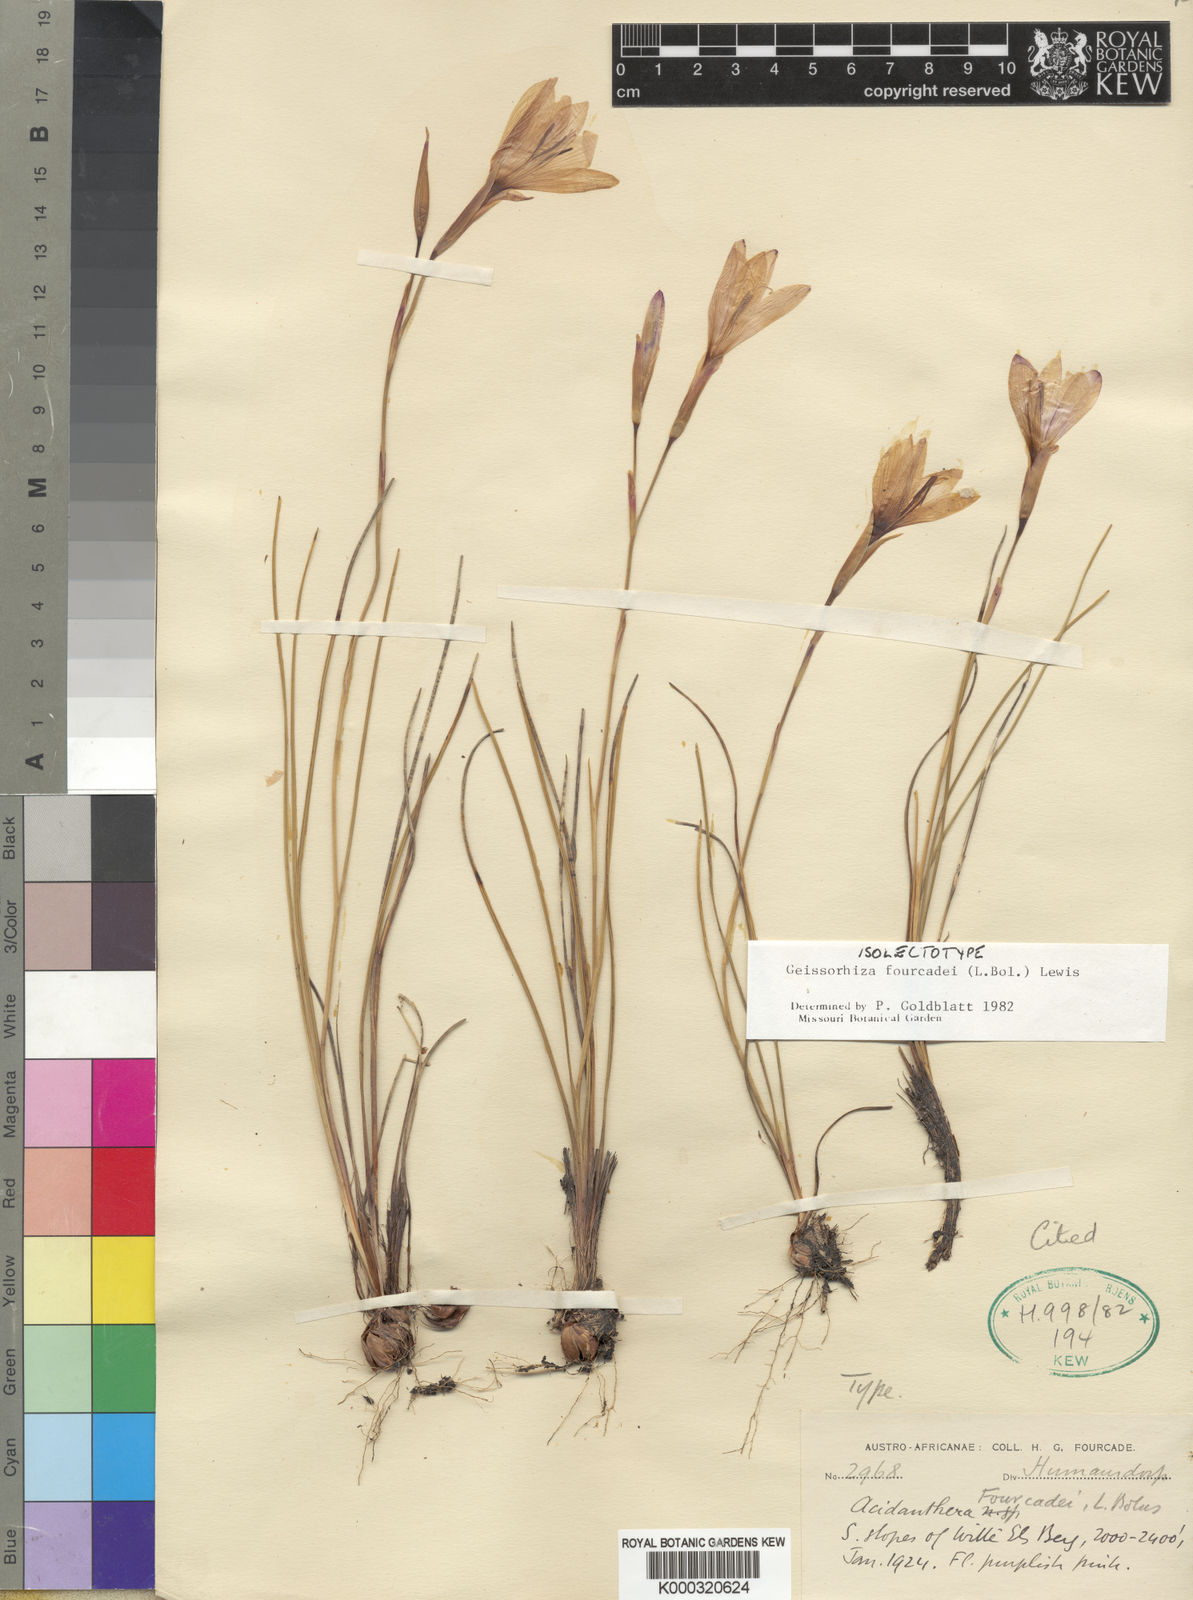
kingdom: Plantae
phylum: Tracheophyta
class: Liliopsida
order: Asparagales
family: Iridaceae
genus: Geissorhiza
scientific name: Geissorhiza fourcadei
